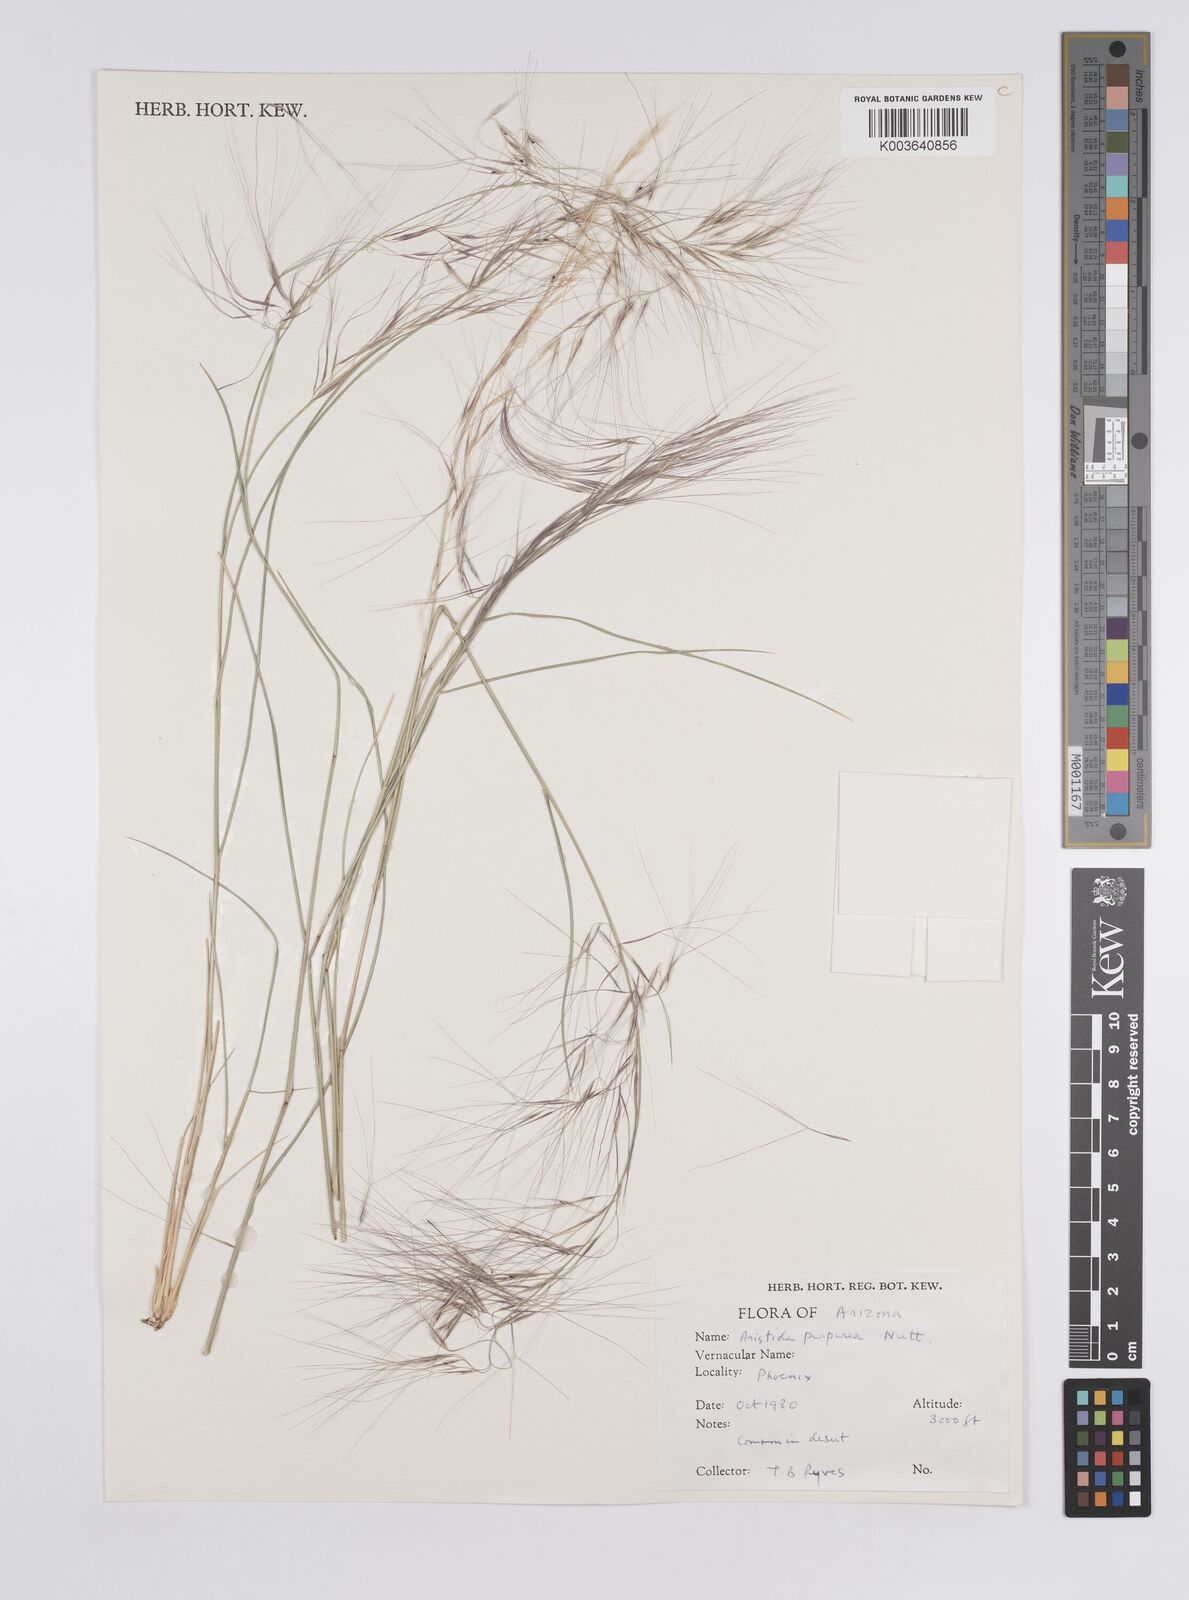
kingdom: Plantae
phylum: Tracheophyta
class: Liliopsida
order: Poales
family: Poaceae
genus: Aristida
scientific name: Aristida purpurea
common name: Purple threeawn
